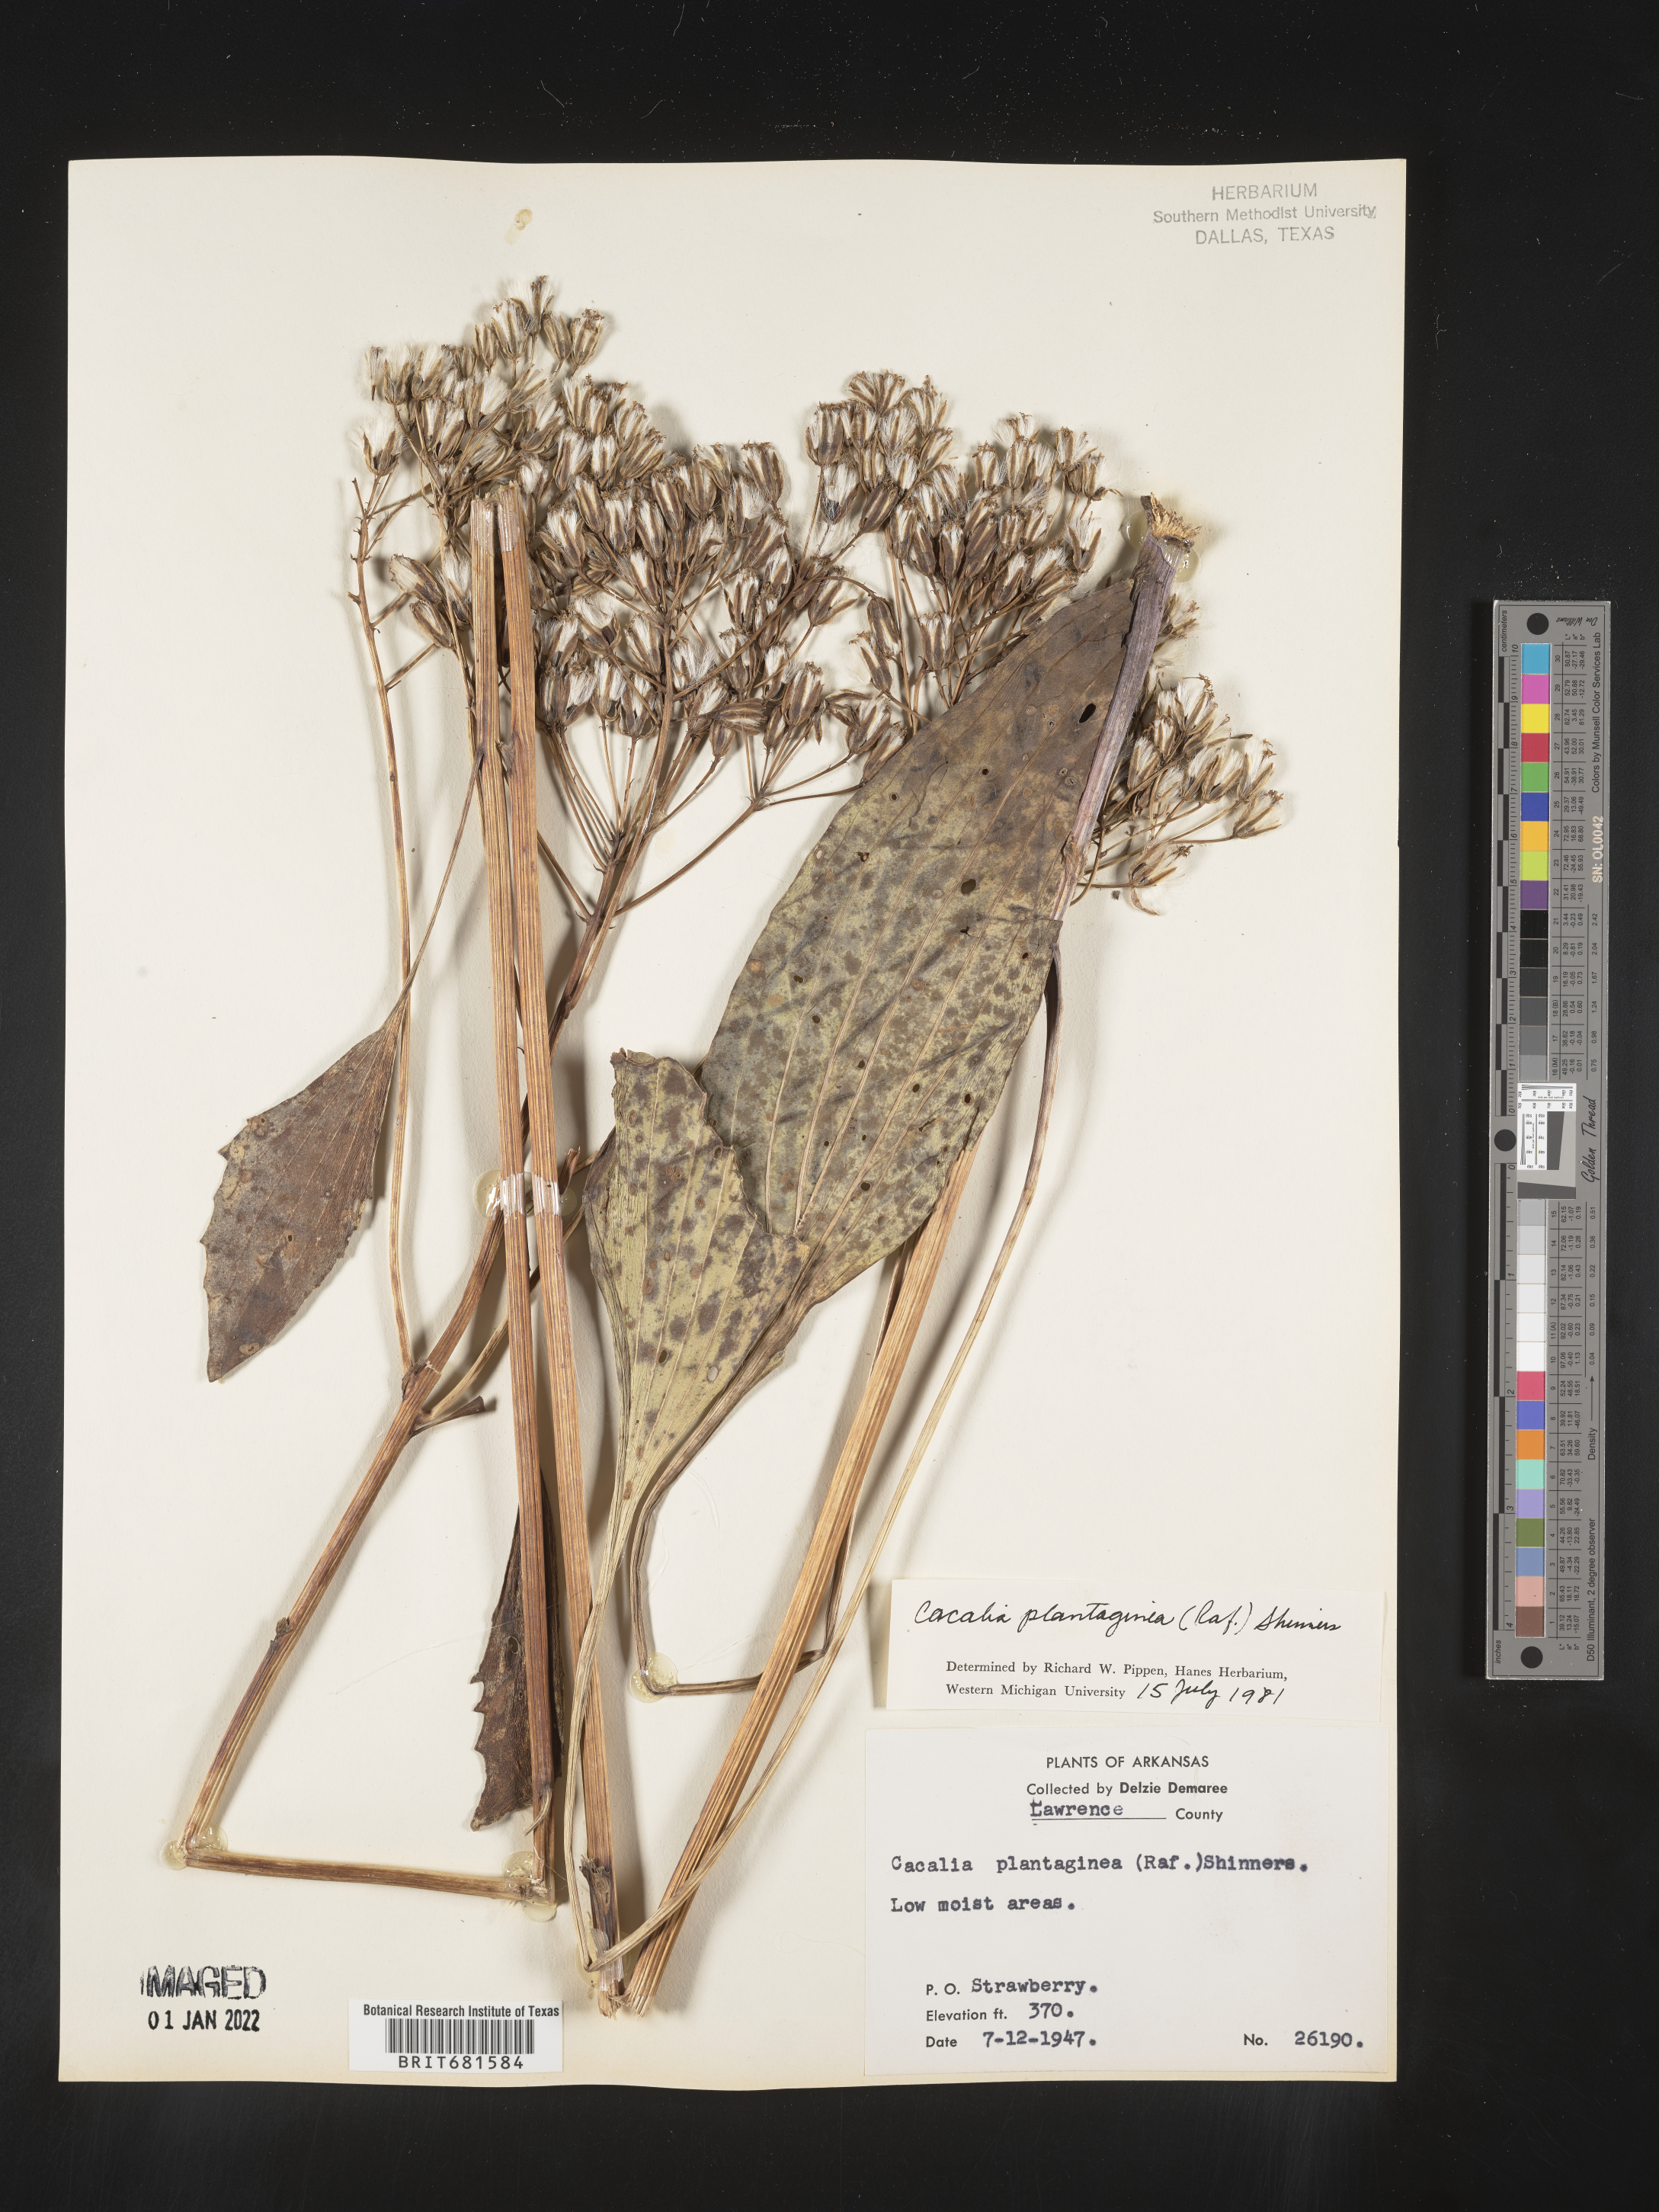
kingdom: Plantae
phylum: Tracheophyta
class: Magnoliopsida
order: Asterales
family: Asteraceae
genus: Arnoglossum
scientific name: Arnoglossum plantagineum
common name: Groove-stemmed indian-plantain
